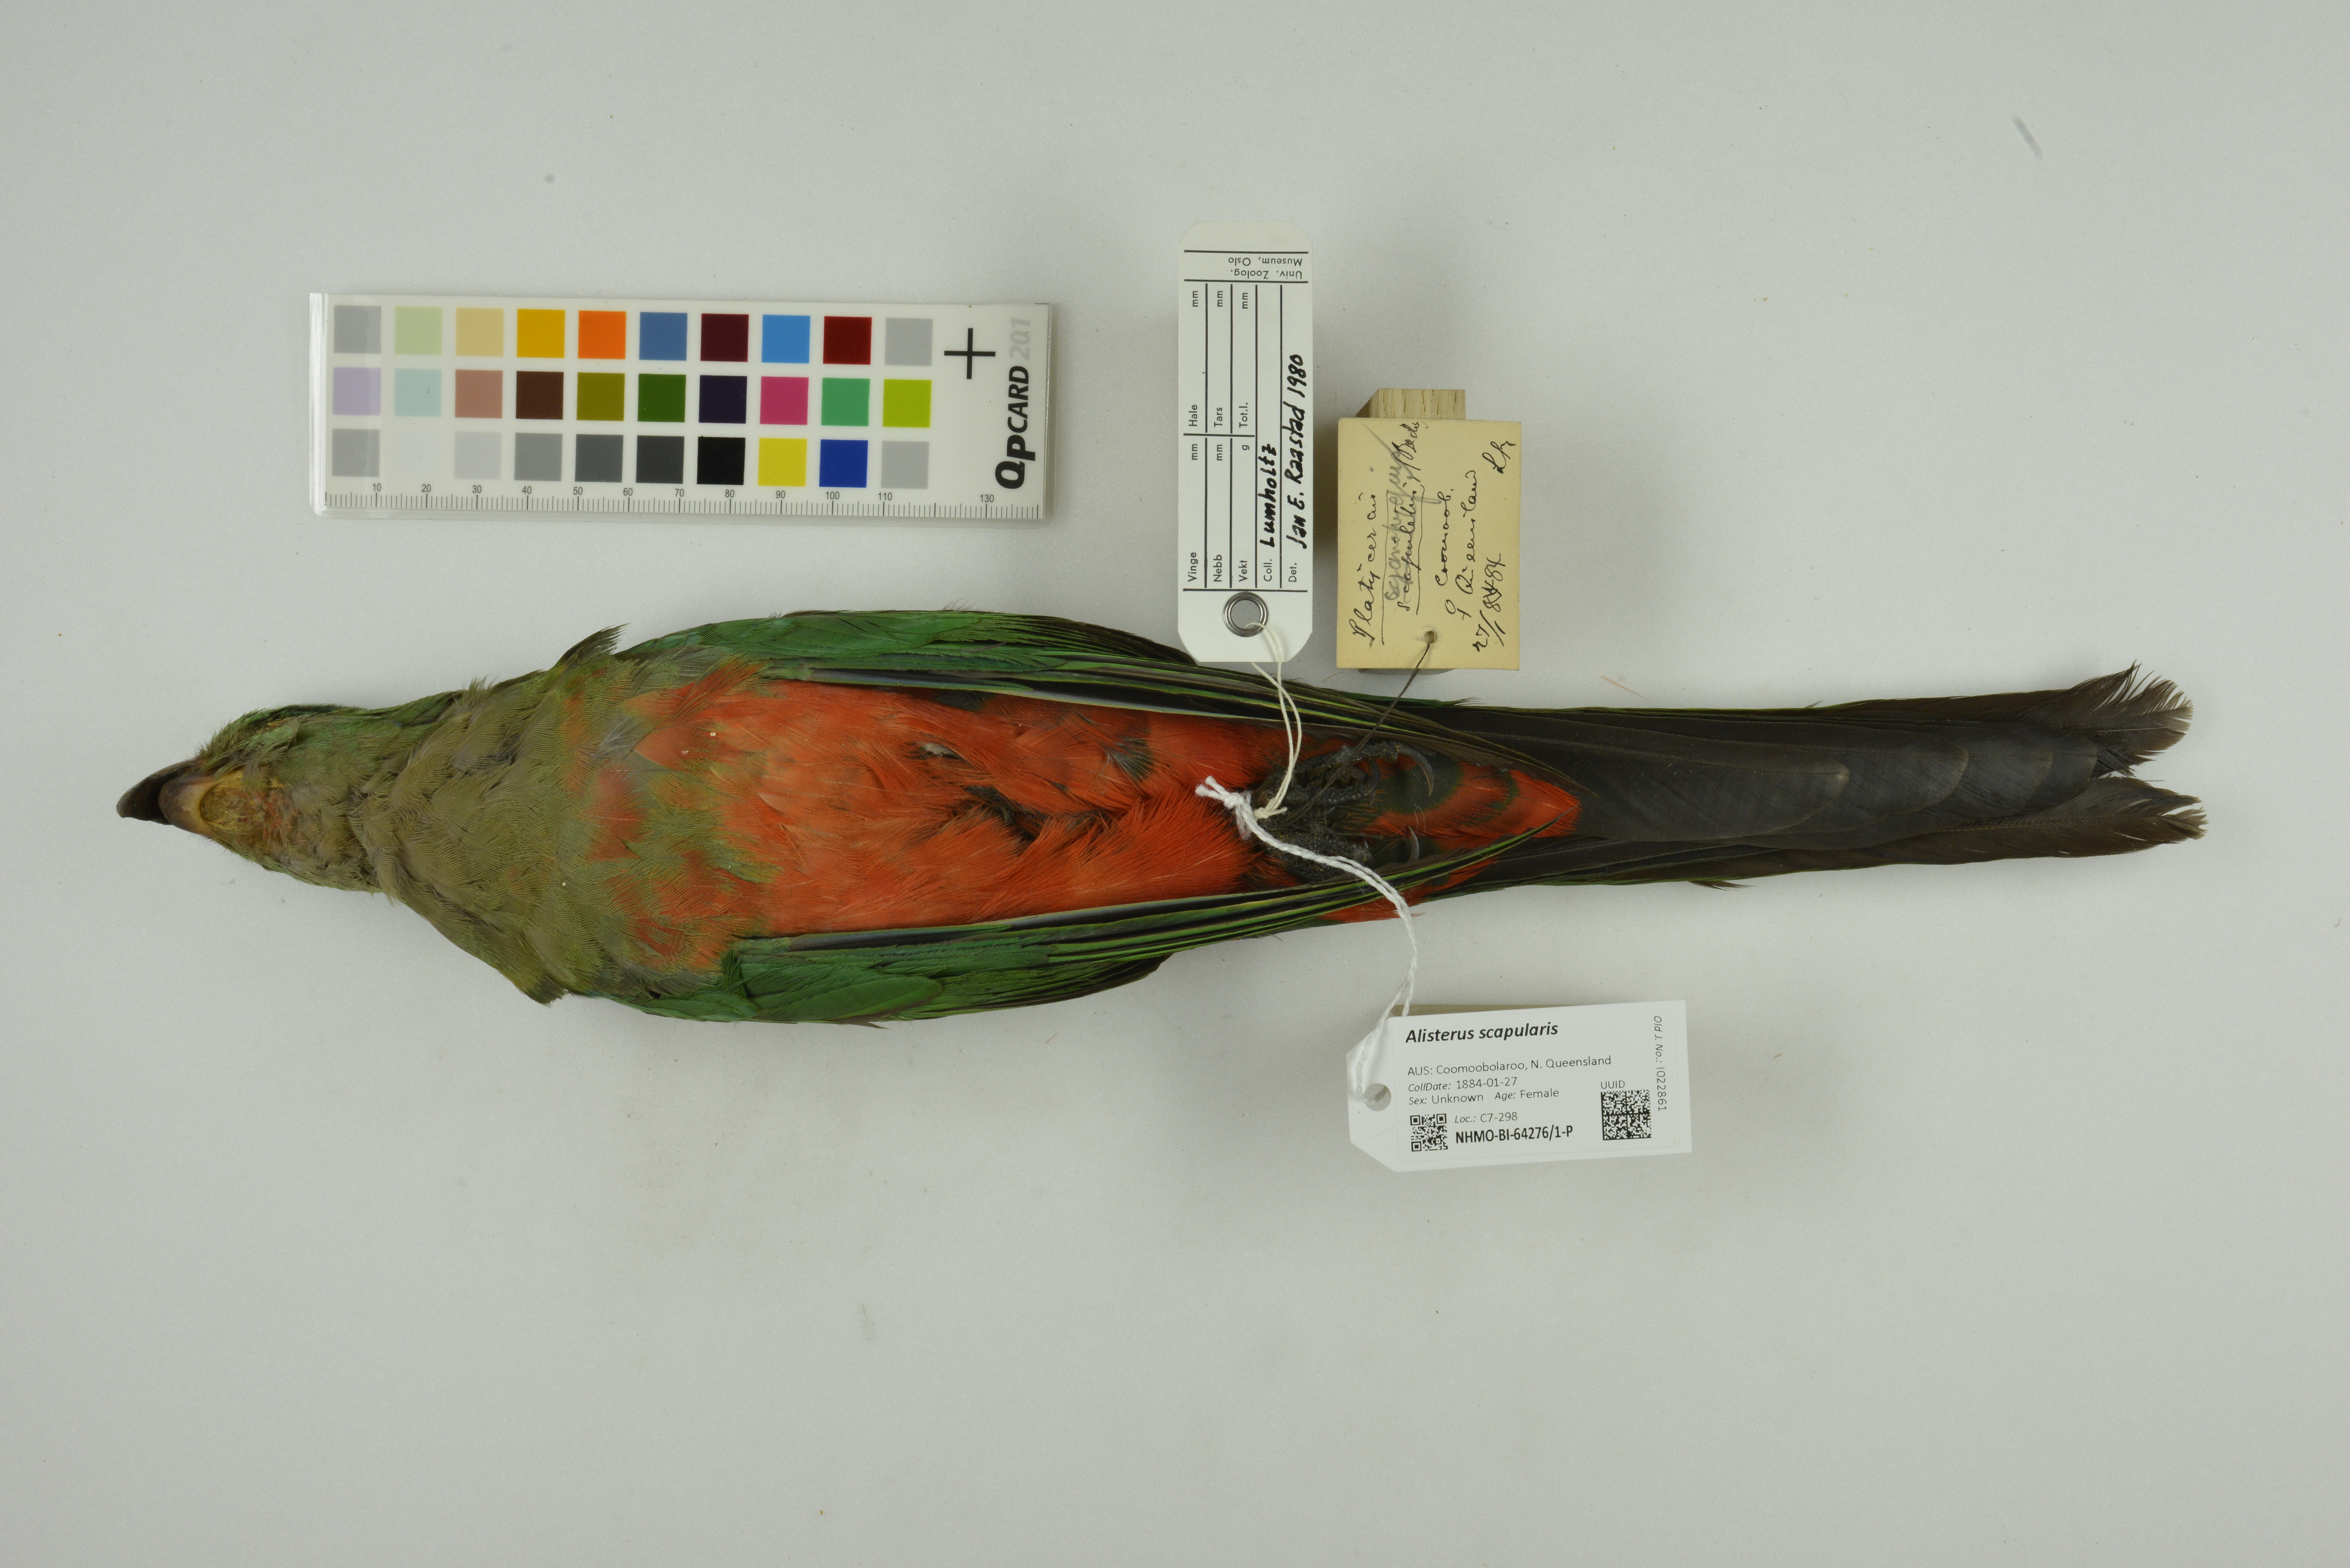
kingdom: Animalia
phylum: Chordata
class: Aves
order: Psittaciformes
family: Psittacidae
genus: Alisterus
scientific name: Alisterus scapularis
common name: Australian king parrot
